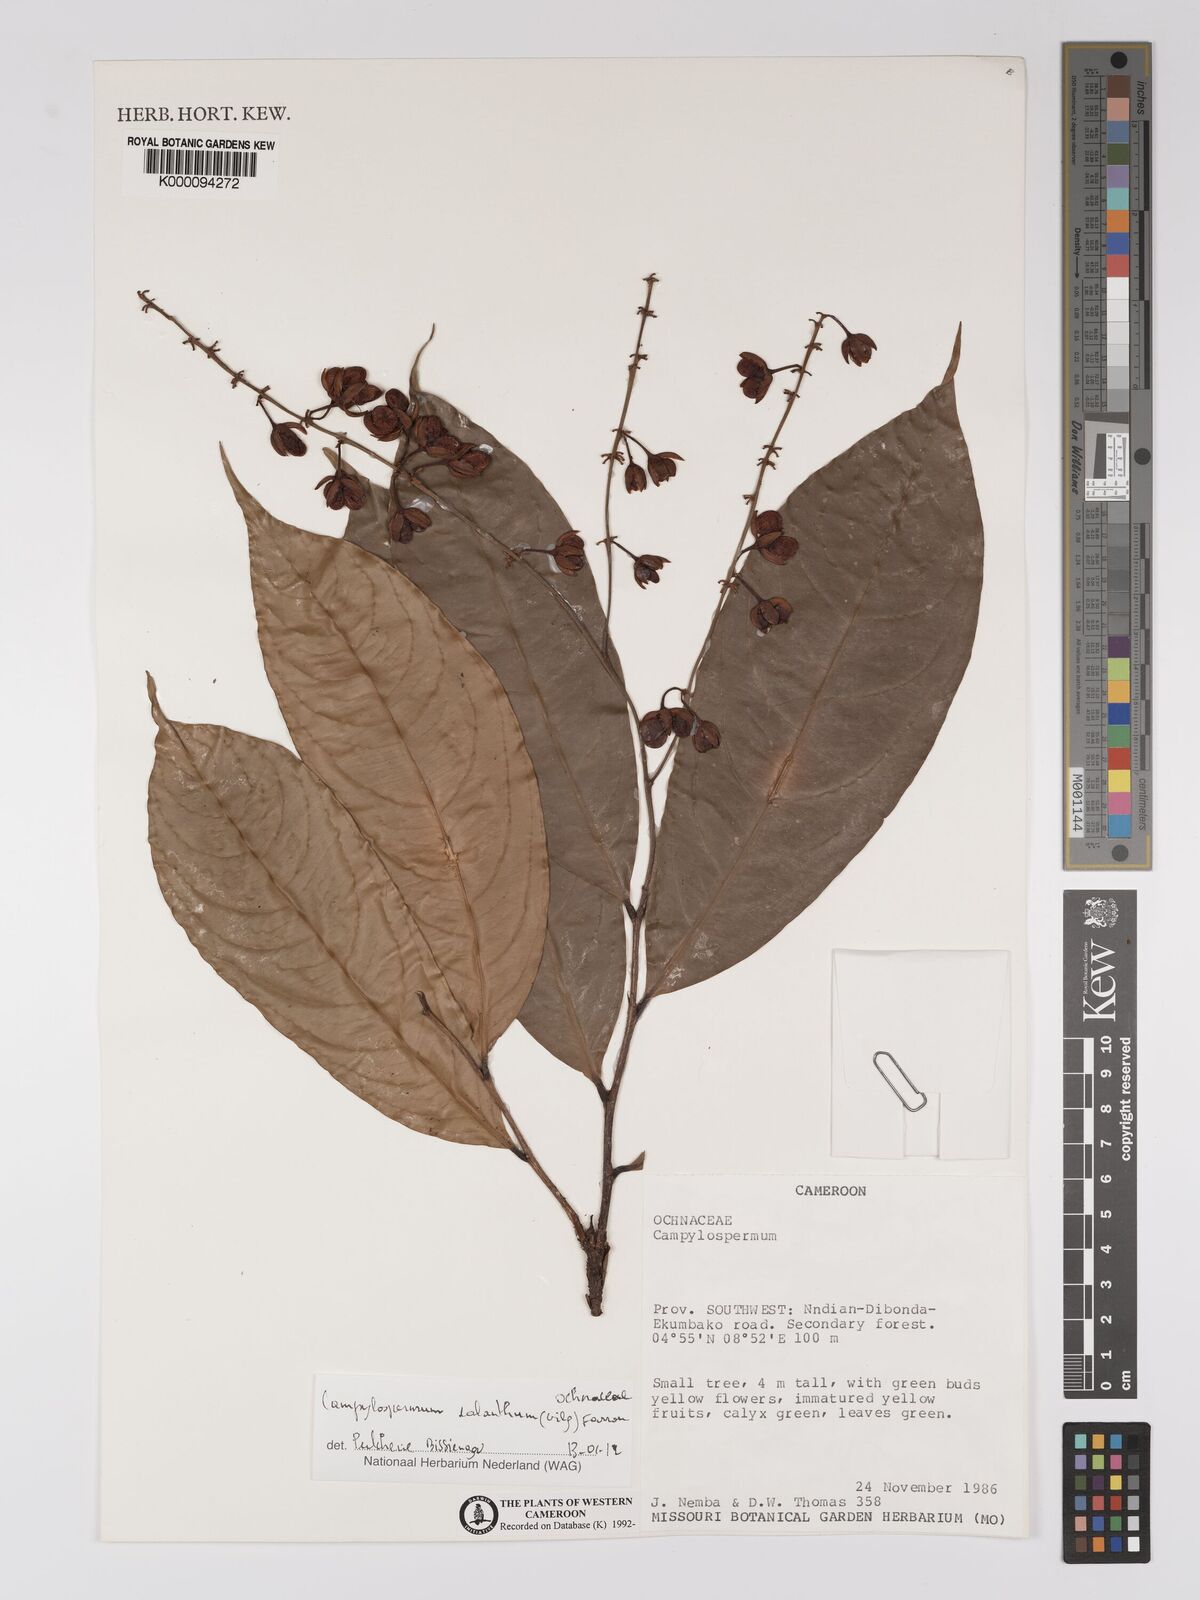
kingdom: Plantae
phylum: Tracheophyta
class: Magnoliopsida
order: Malpighiales
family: Ochnaceae
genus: Campylospermum
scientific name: Campylospermum
